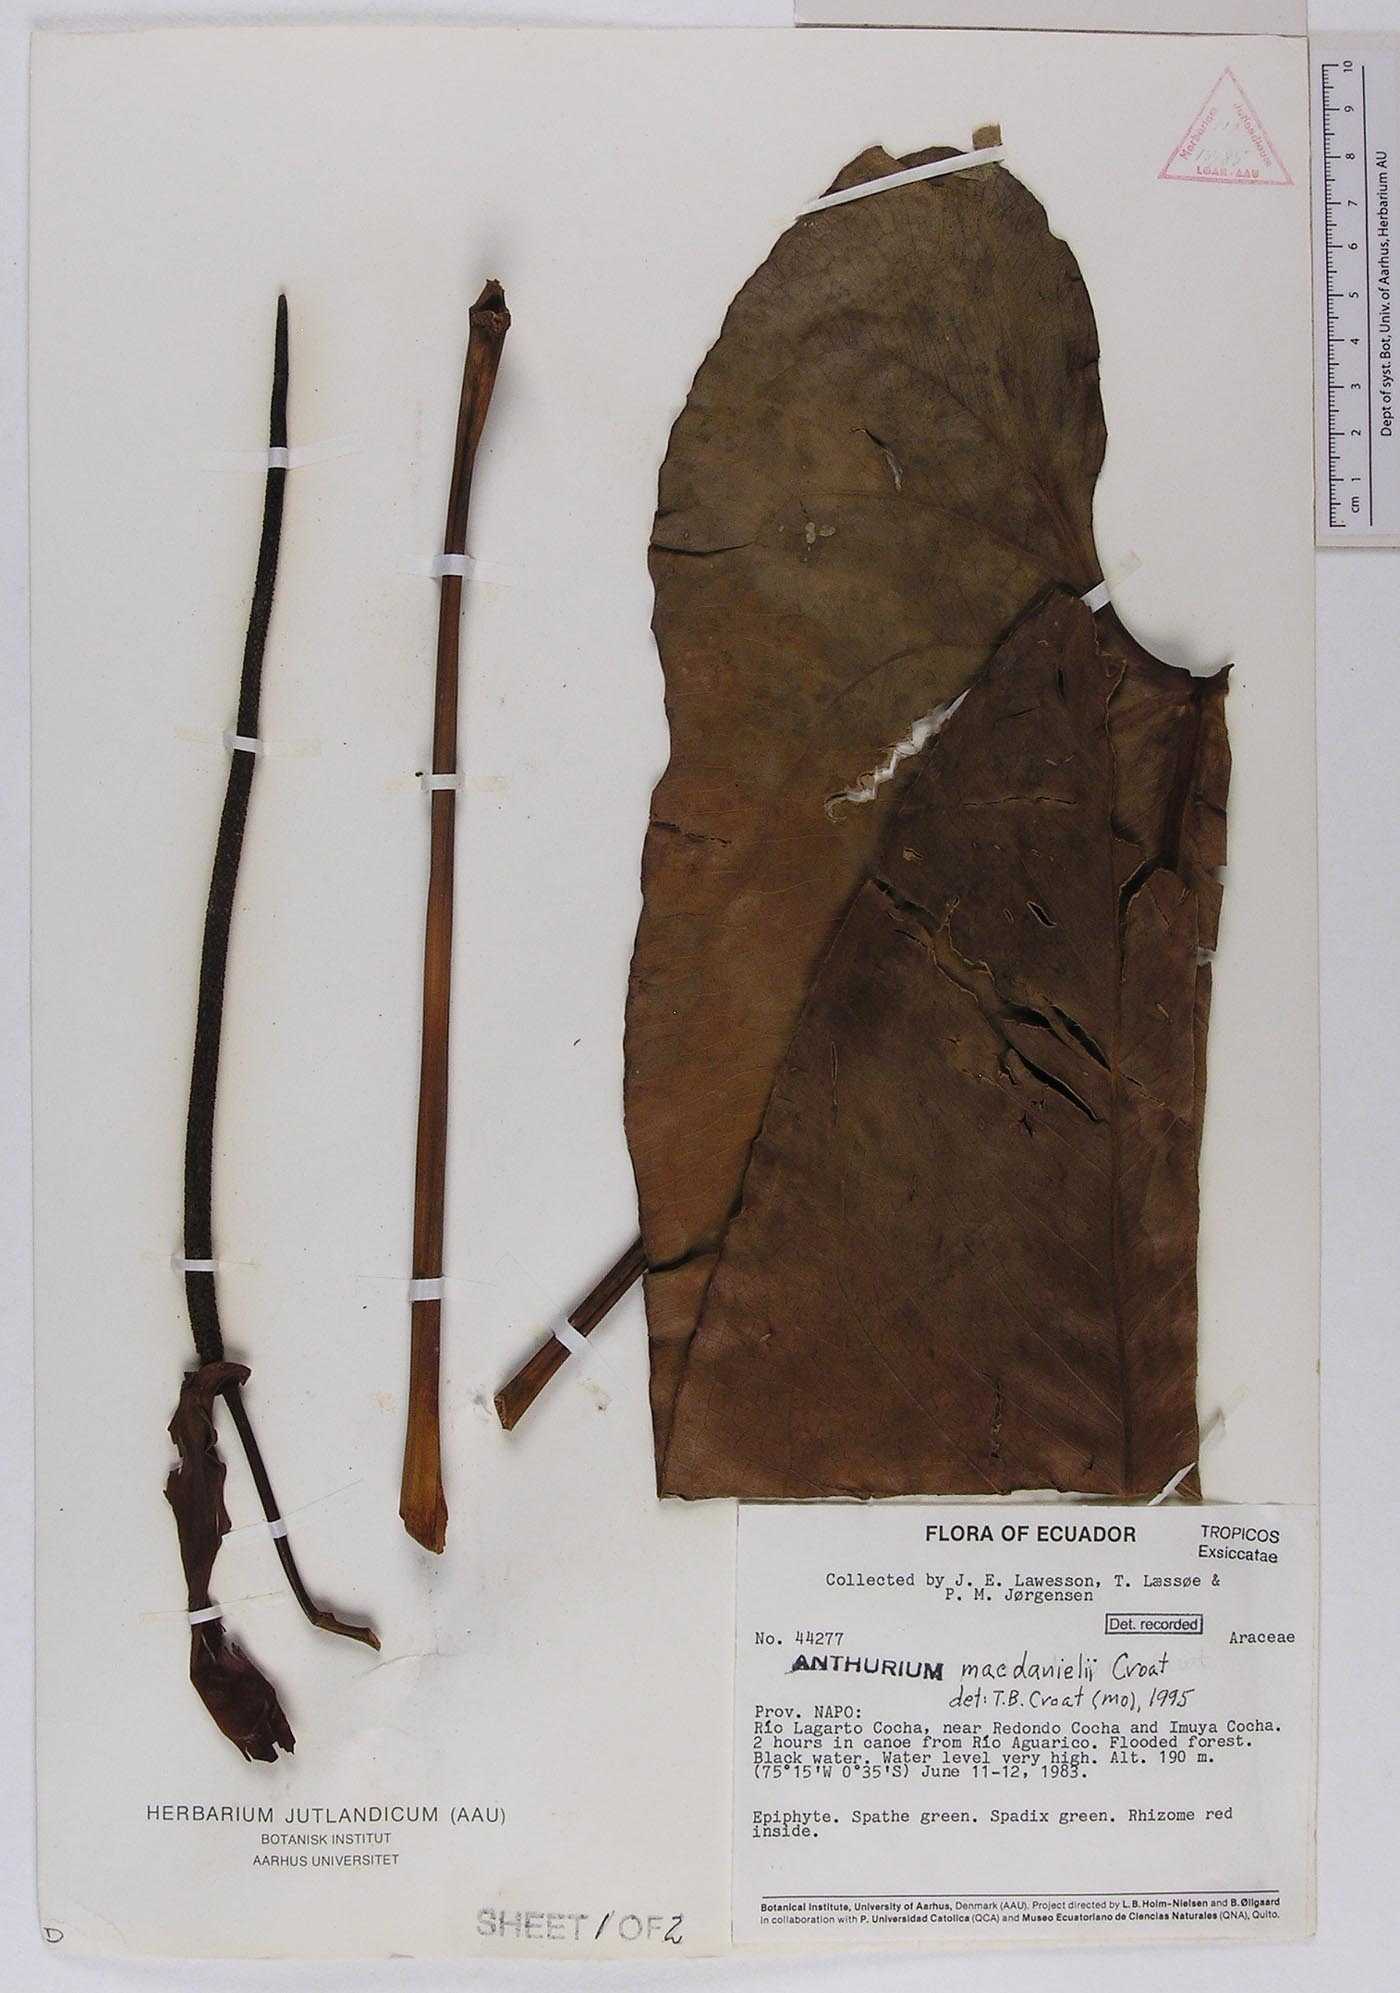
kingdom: Plantae
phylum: Tracheophyta
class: Liliopsida
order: Alismatales
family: Araceae
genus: Anthurium
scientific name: Anthurium macdanielii
